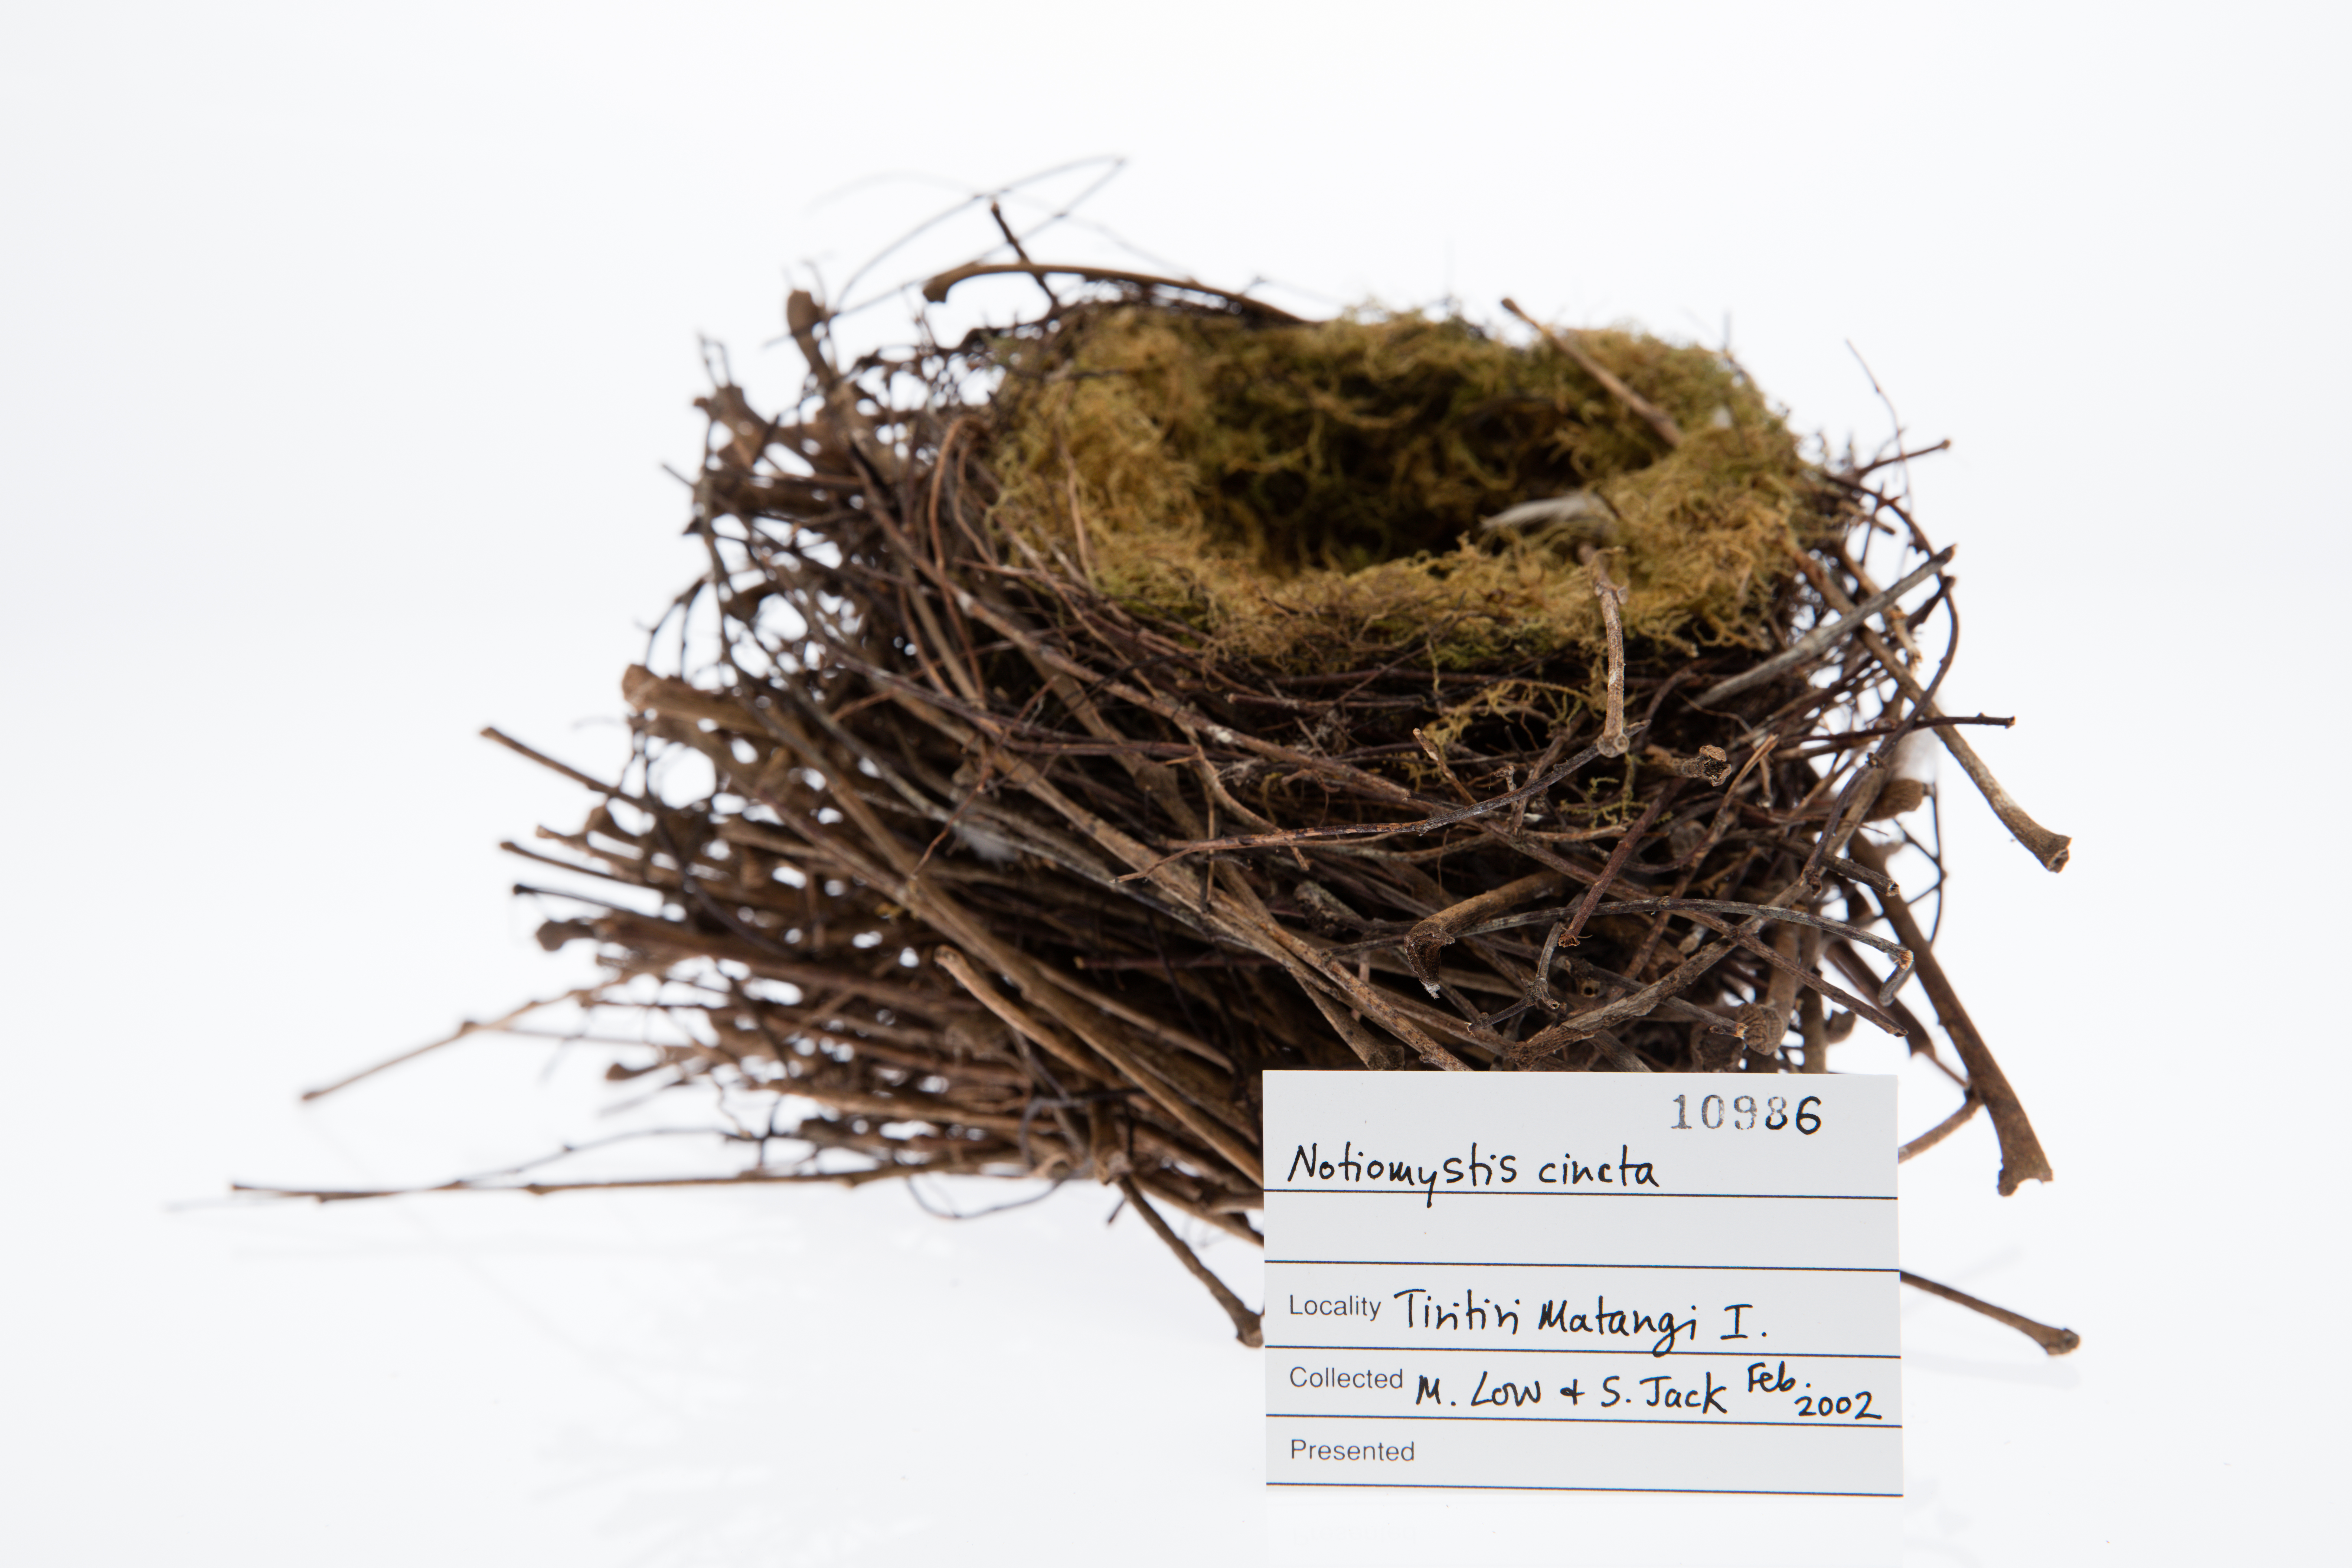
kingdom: Animalia
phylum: Chordata
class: Aves
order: Passeriformes
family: Notiomystidae
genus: Notiomystis
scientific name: Notiomystis cincta
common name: Stitchbird
